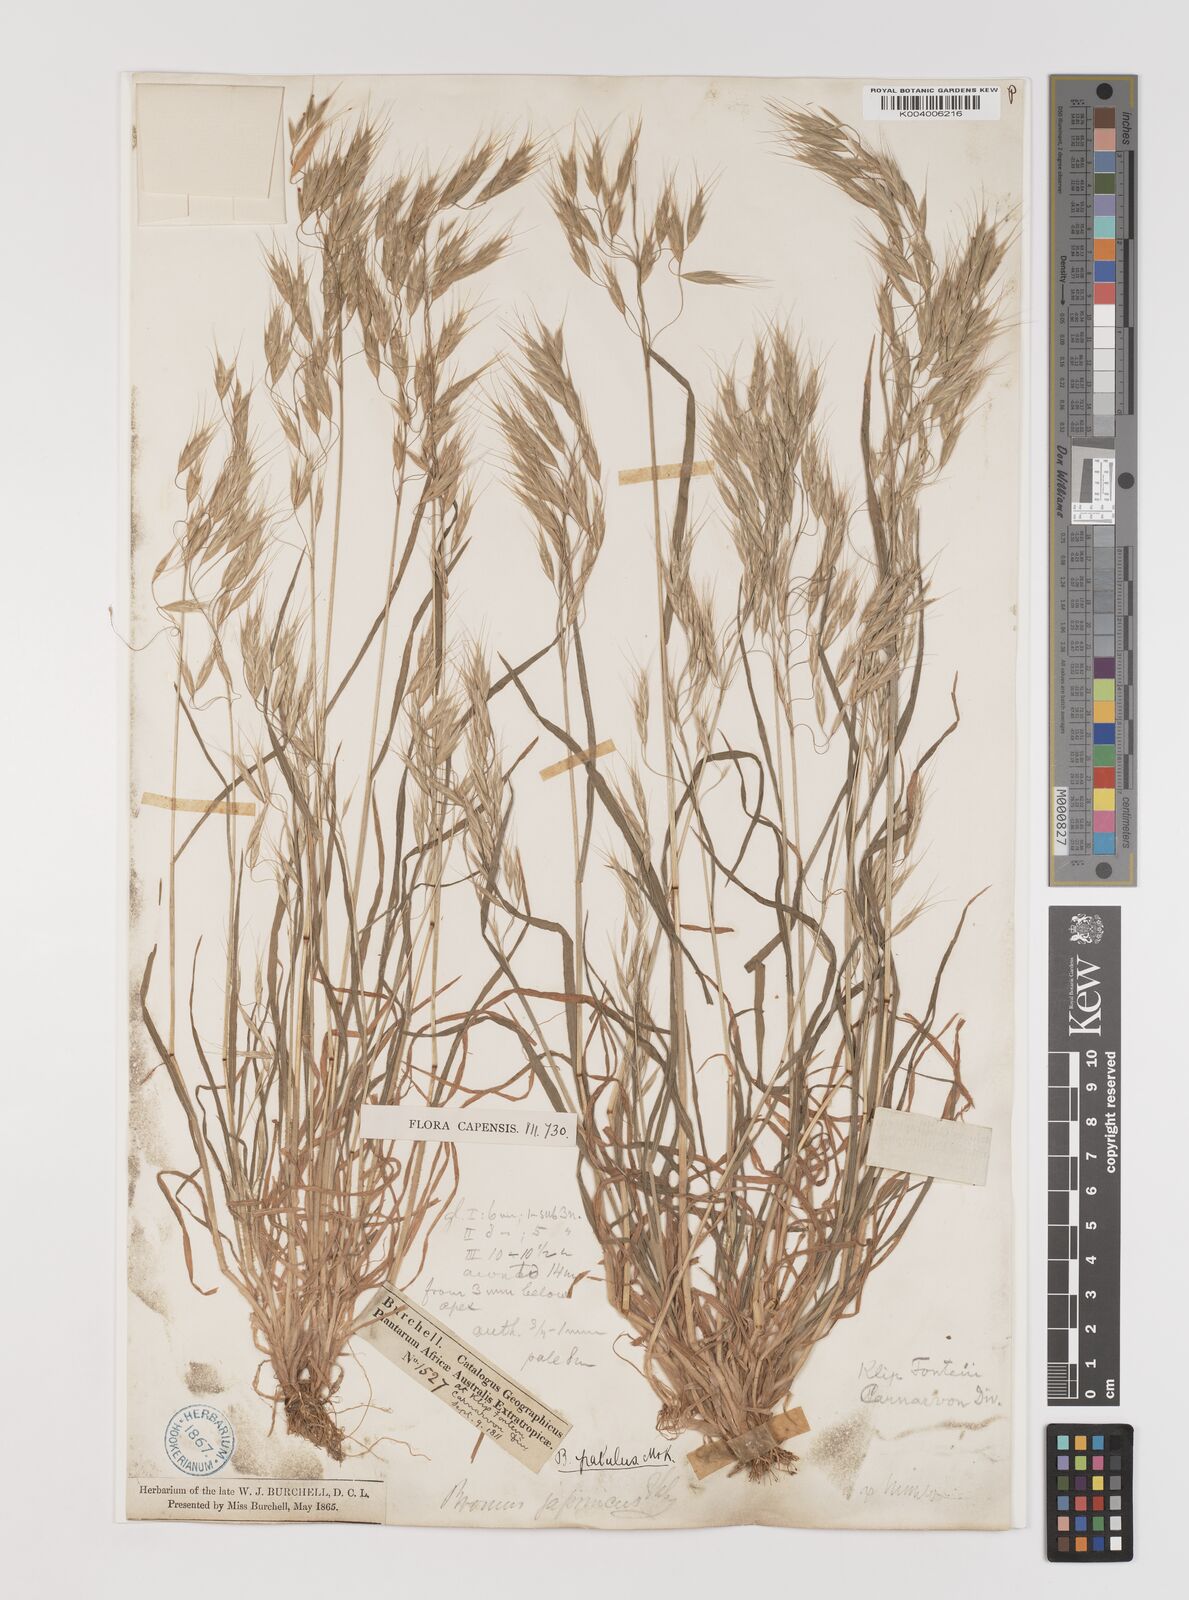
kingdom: Plantae
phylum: Tracheophyta
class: Liliopsida
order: Poales
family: Poaceae
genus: Bromus
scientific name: Bromus pectinatus
